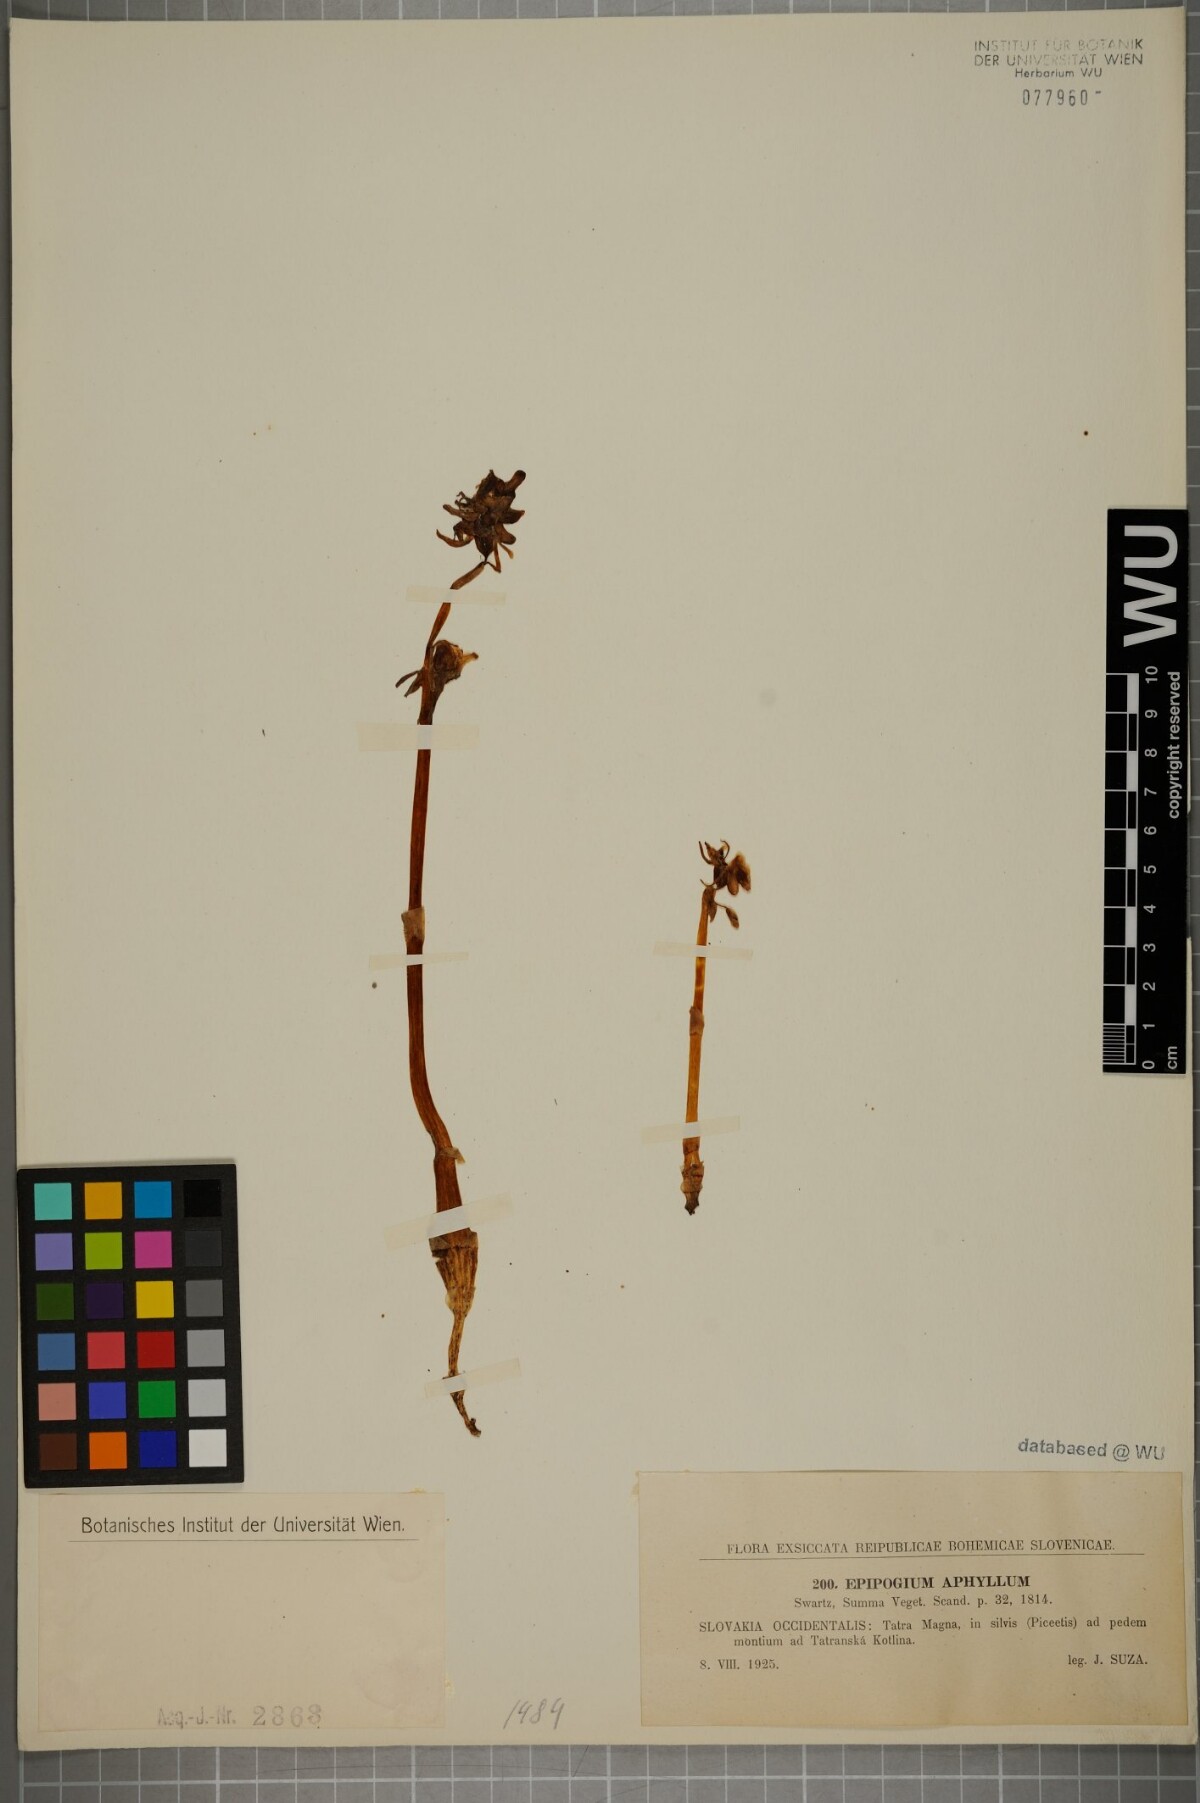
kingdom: Plantae
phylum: Tracheophyta
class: Liliopsida
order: Asparagales
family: Orchidaceae
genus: Epipogium
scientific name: Epipogium aphyllum
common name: Ghost orchid
